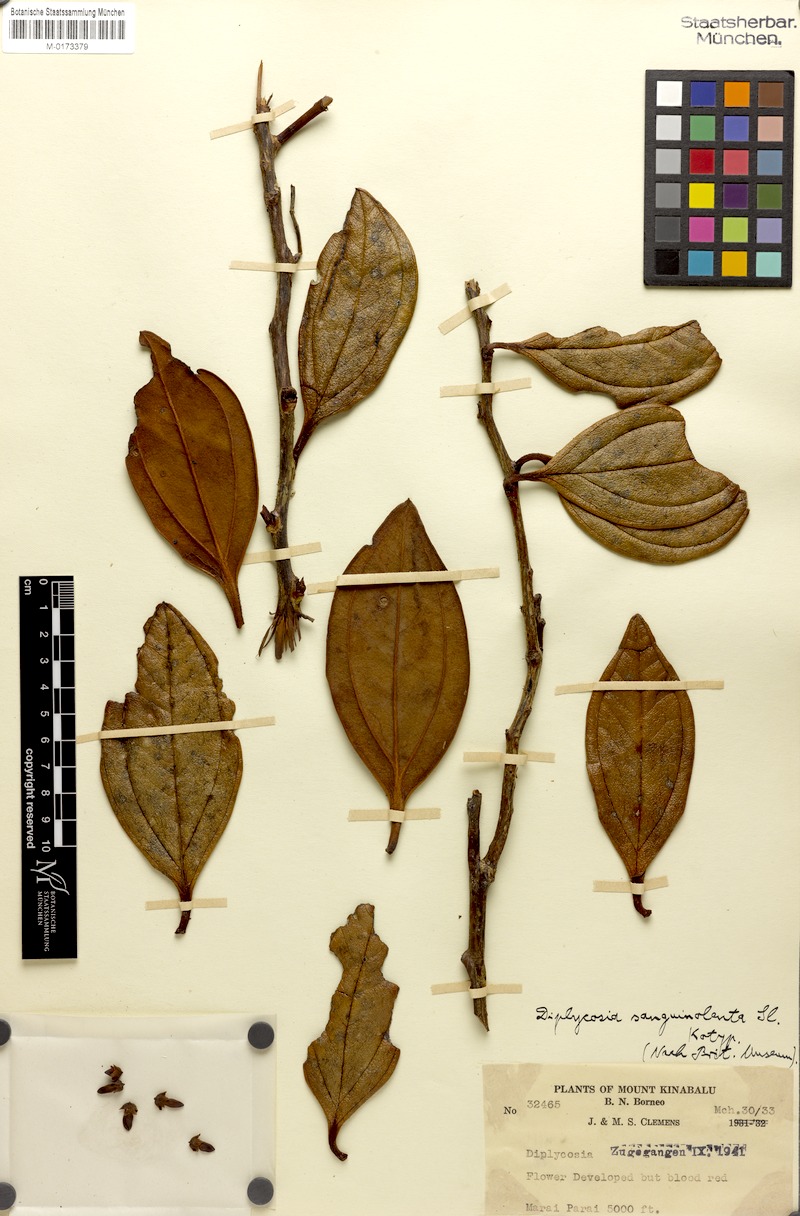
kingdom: Plantae
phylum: Tracheophyta
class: Magnoliopsida
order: Ericales
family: Ericaceae
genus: Gaultheria
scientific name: Gaultheria sanguinolenta
